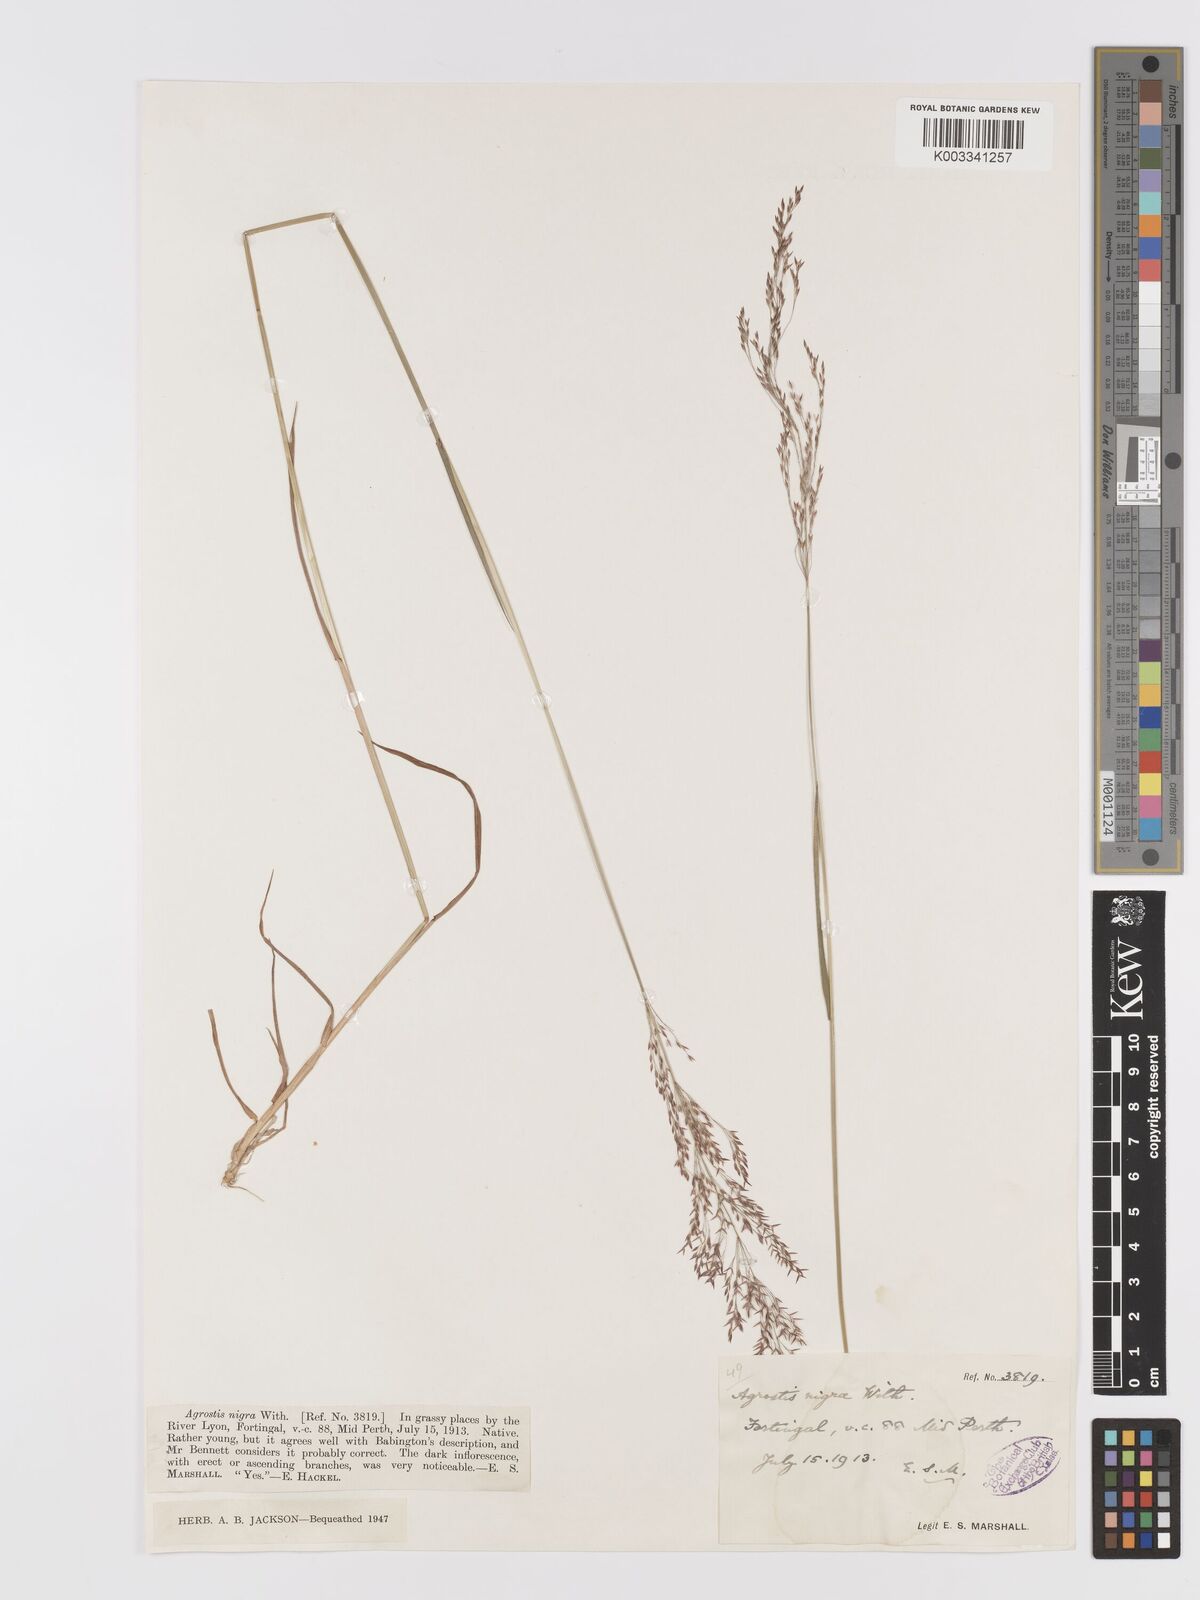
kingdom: Plantae
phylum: Tracheophyta
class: Liliopsida
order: Poales
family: Poaceae
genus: Agrostis
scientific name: Agrostis gigantea
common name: Black bent
